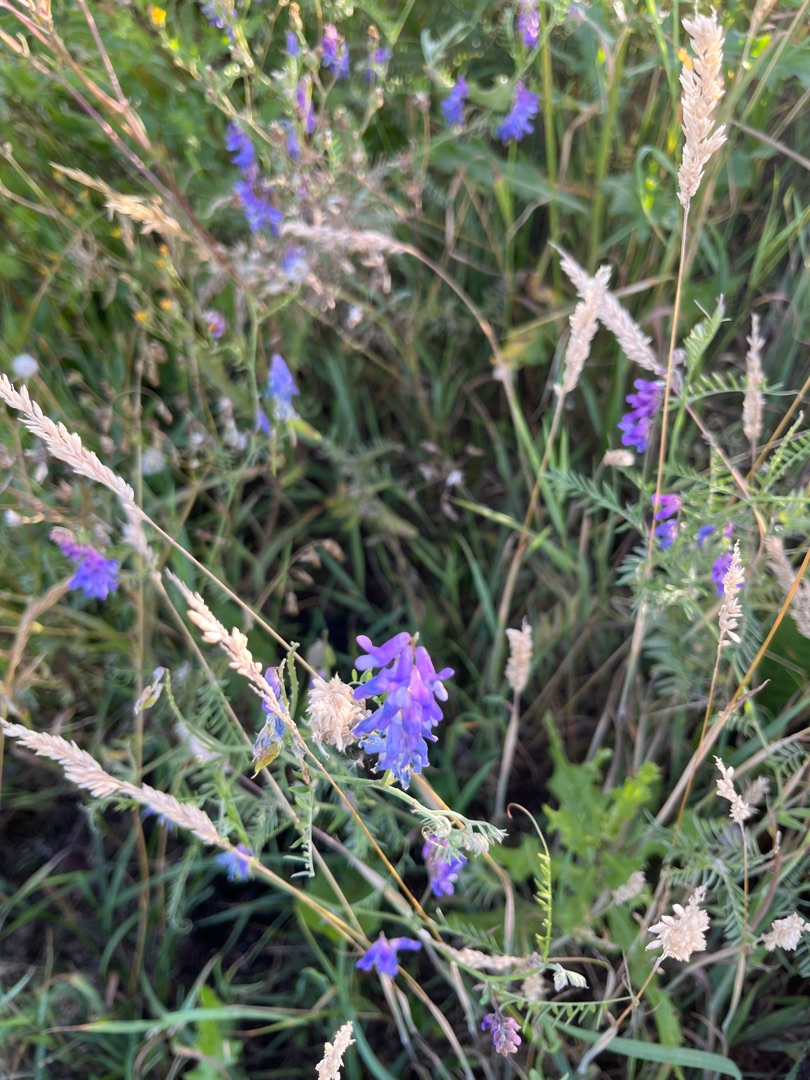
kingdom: Plantae
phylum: Tracheophyta
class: Magnoliopsida
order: Fabales
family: Fabaceae
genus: Vicia
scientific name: Vicia cracca
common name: Muse-vikke
